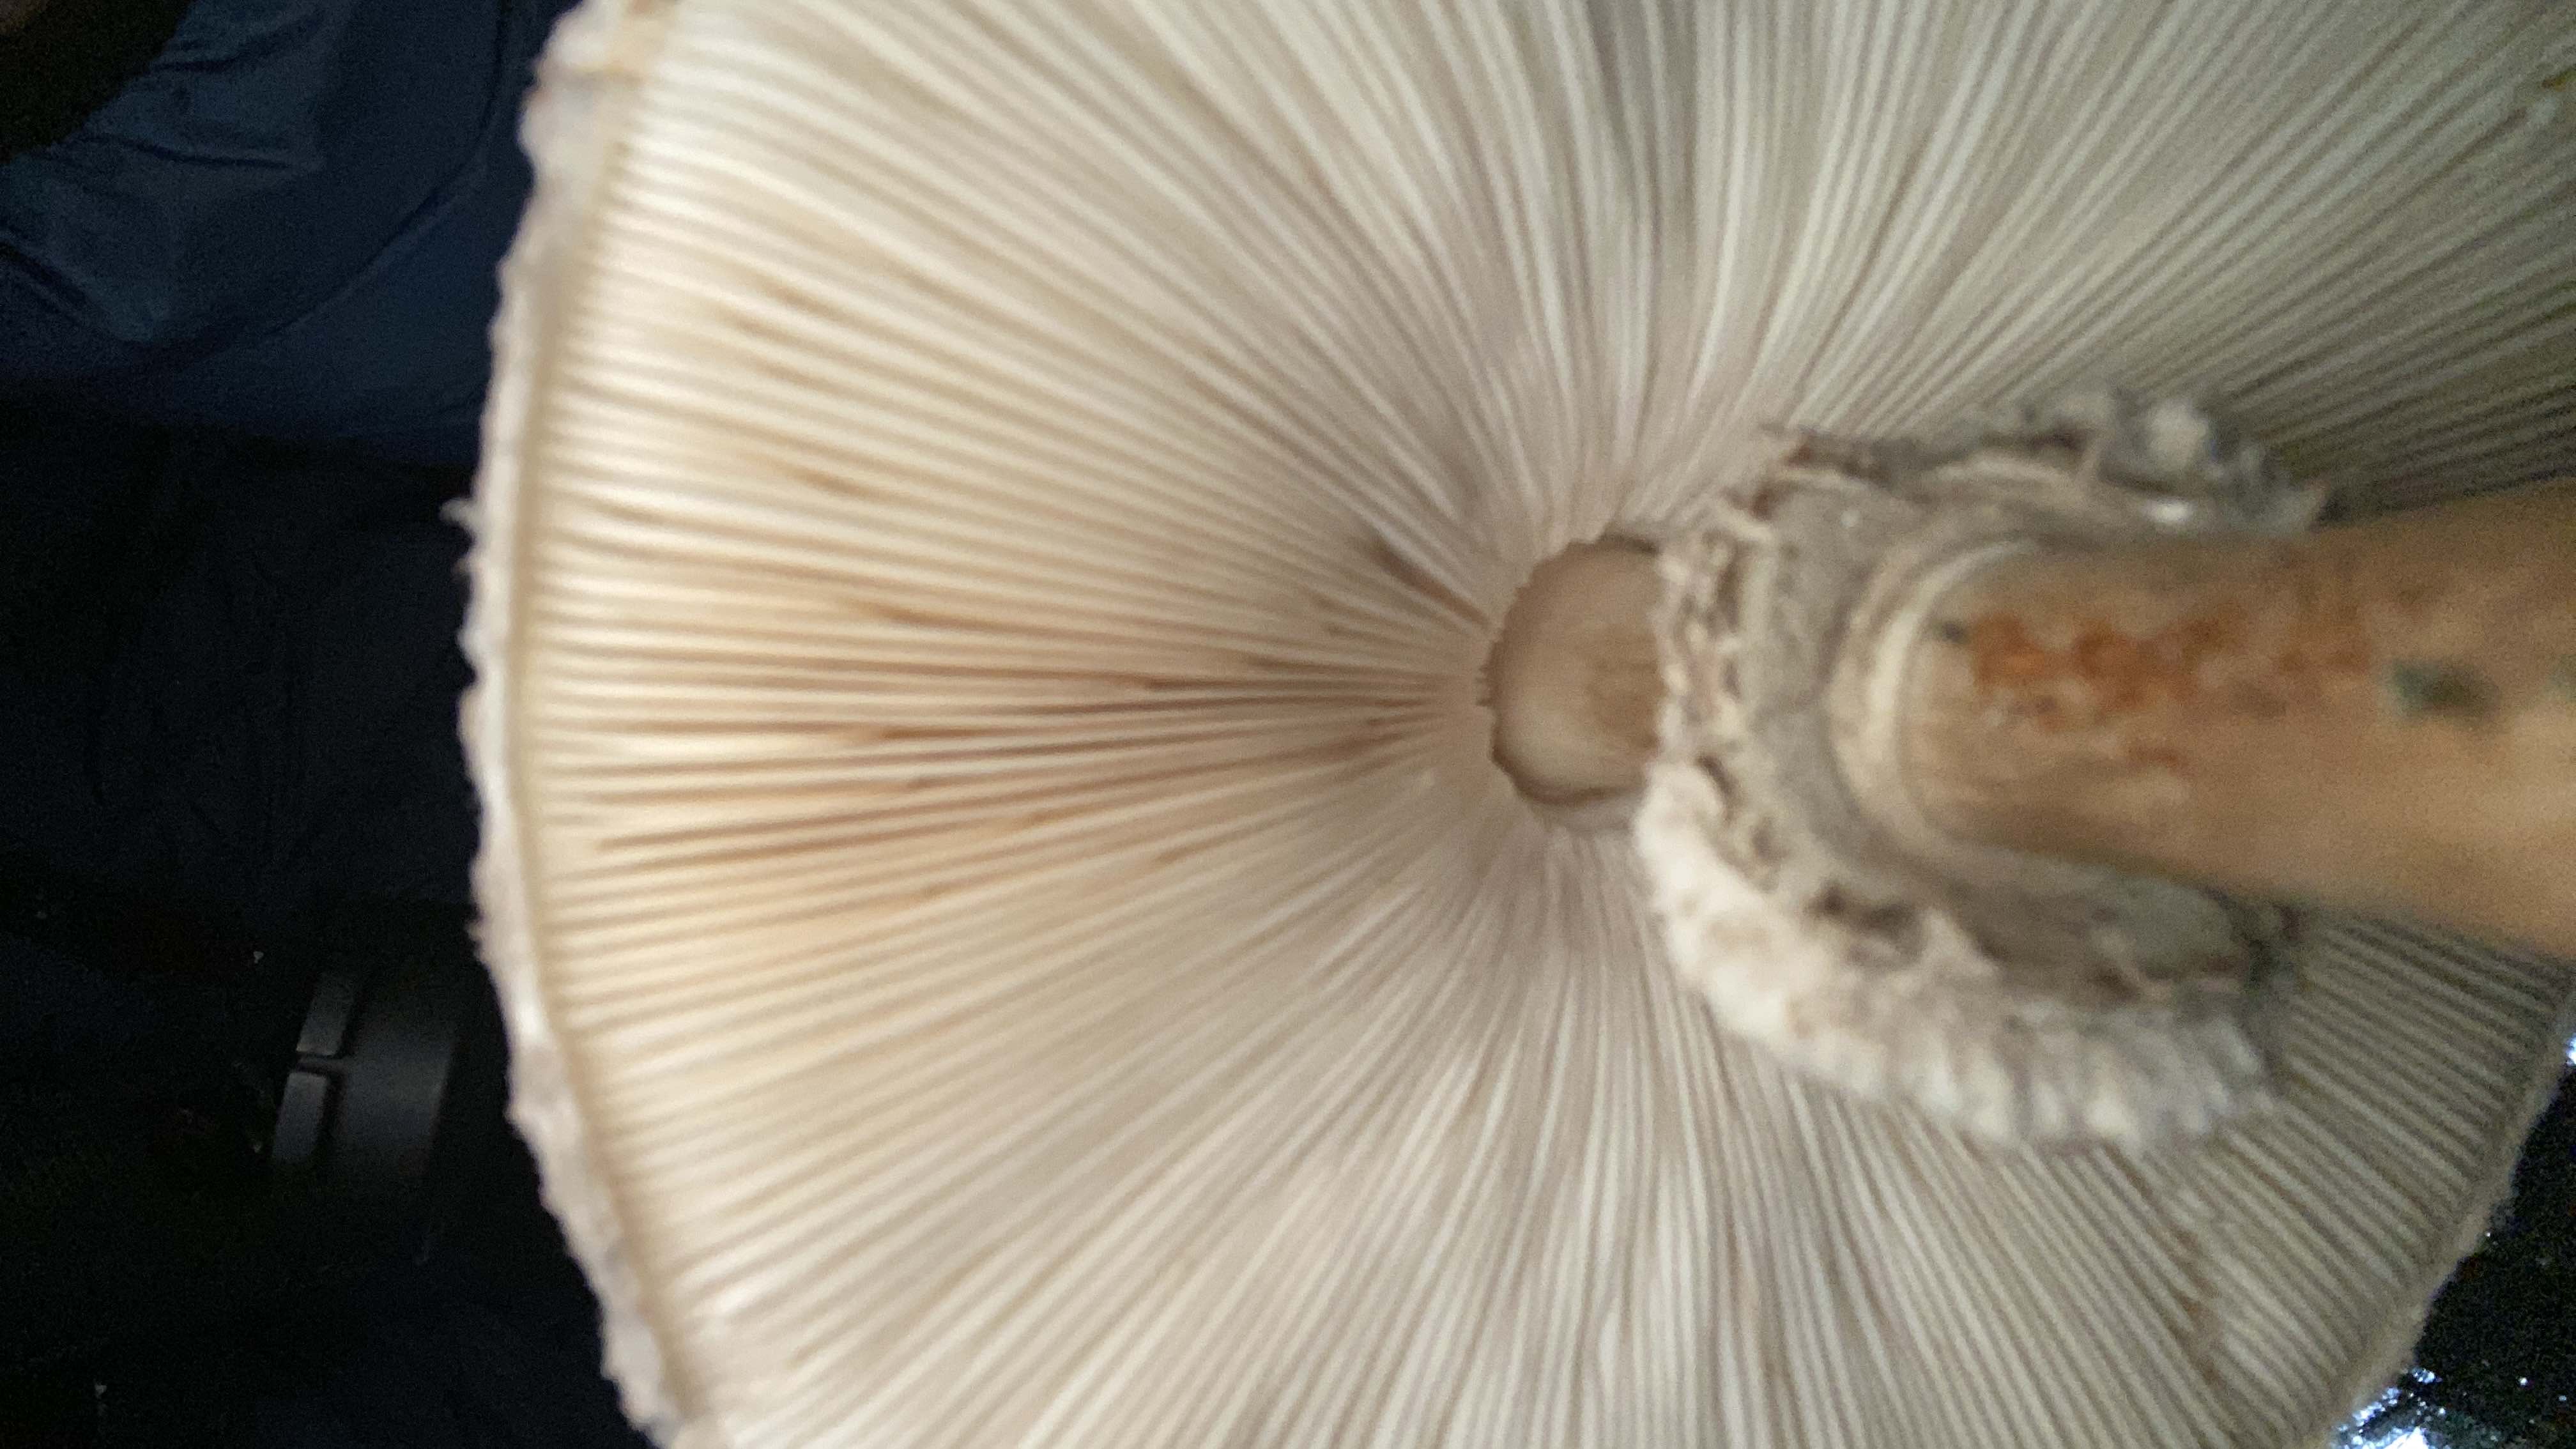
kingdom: Fungi
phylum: Basidiomycota
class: Agaricomycetes
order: Agaricales
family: Agaricaceae
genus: Chlorophyllum
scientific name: Chlorophyllum olivieri
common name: almindelig rabarberhat
